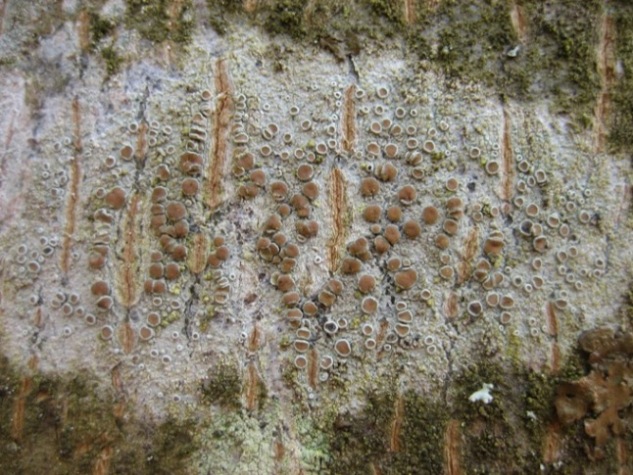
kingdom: Fungi
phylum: Ascomycota
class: Lecanoromycetes
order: Lecanorales
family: Lecanoraceae
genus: Lecanora
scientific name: Lecanora chlarotera
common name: brun kantskivelav
